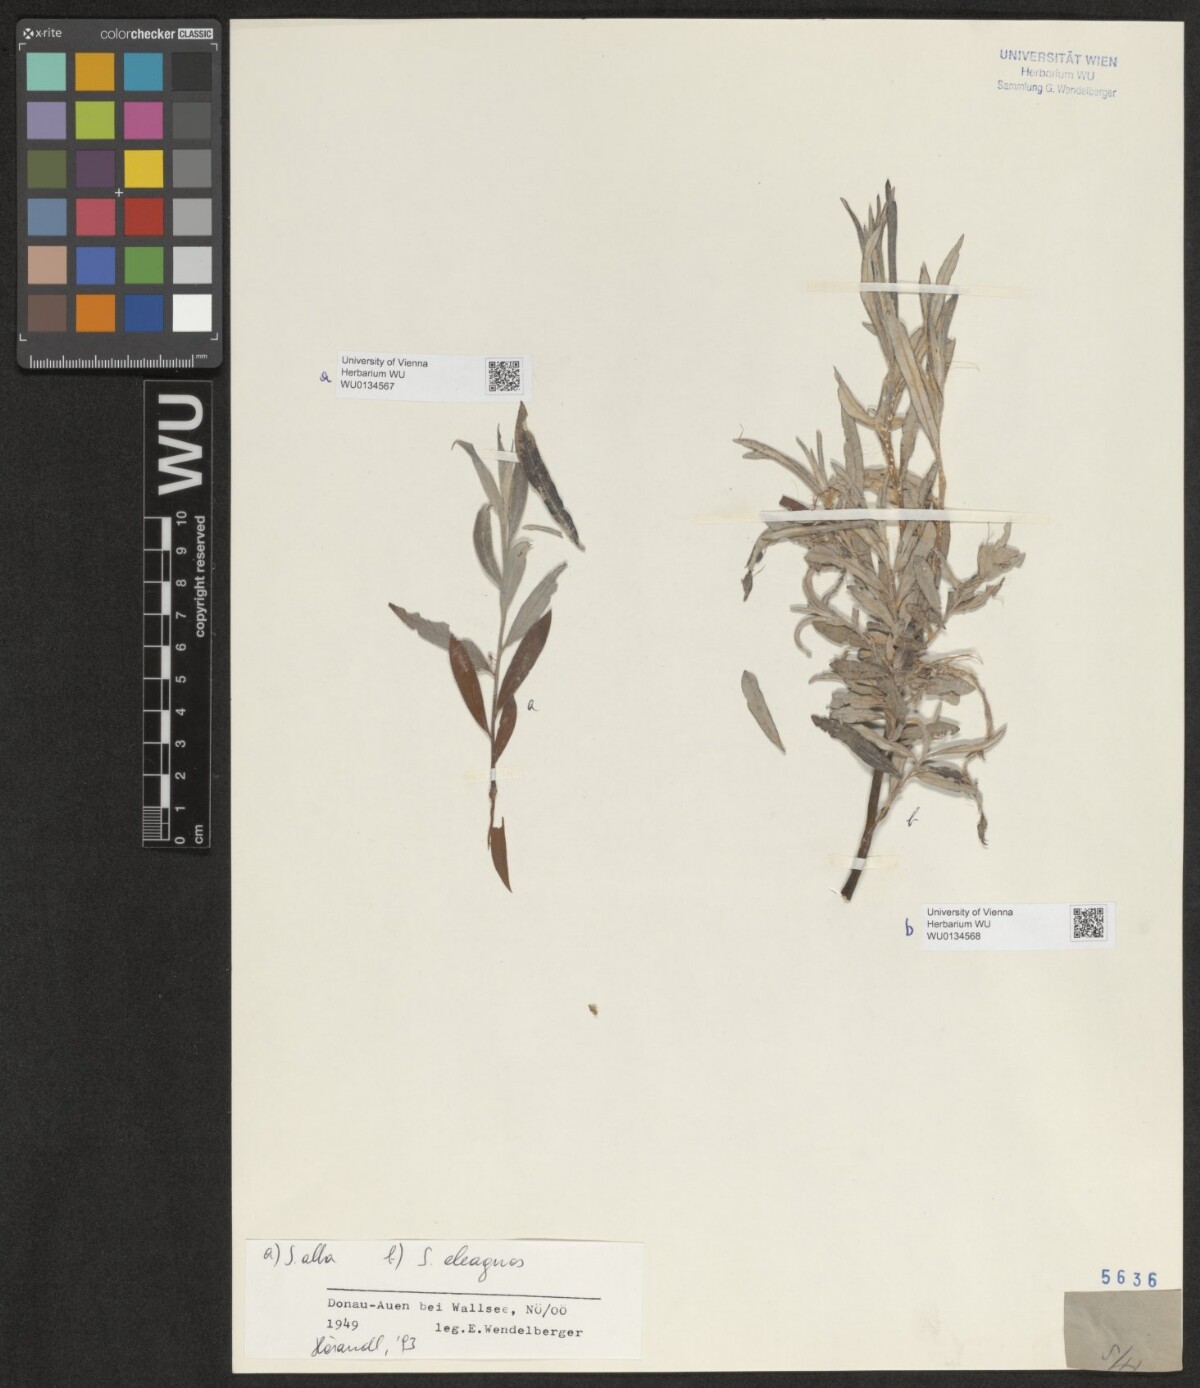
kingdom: Plantae
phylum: Tracheophyta
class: Magnoliopsida
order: Malpighiales
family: Salicaceae
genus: Salix
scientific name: Salix alba
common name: White willow
